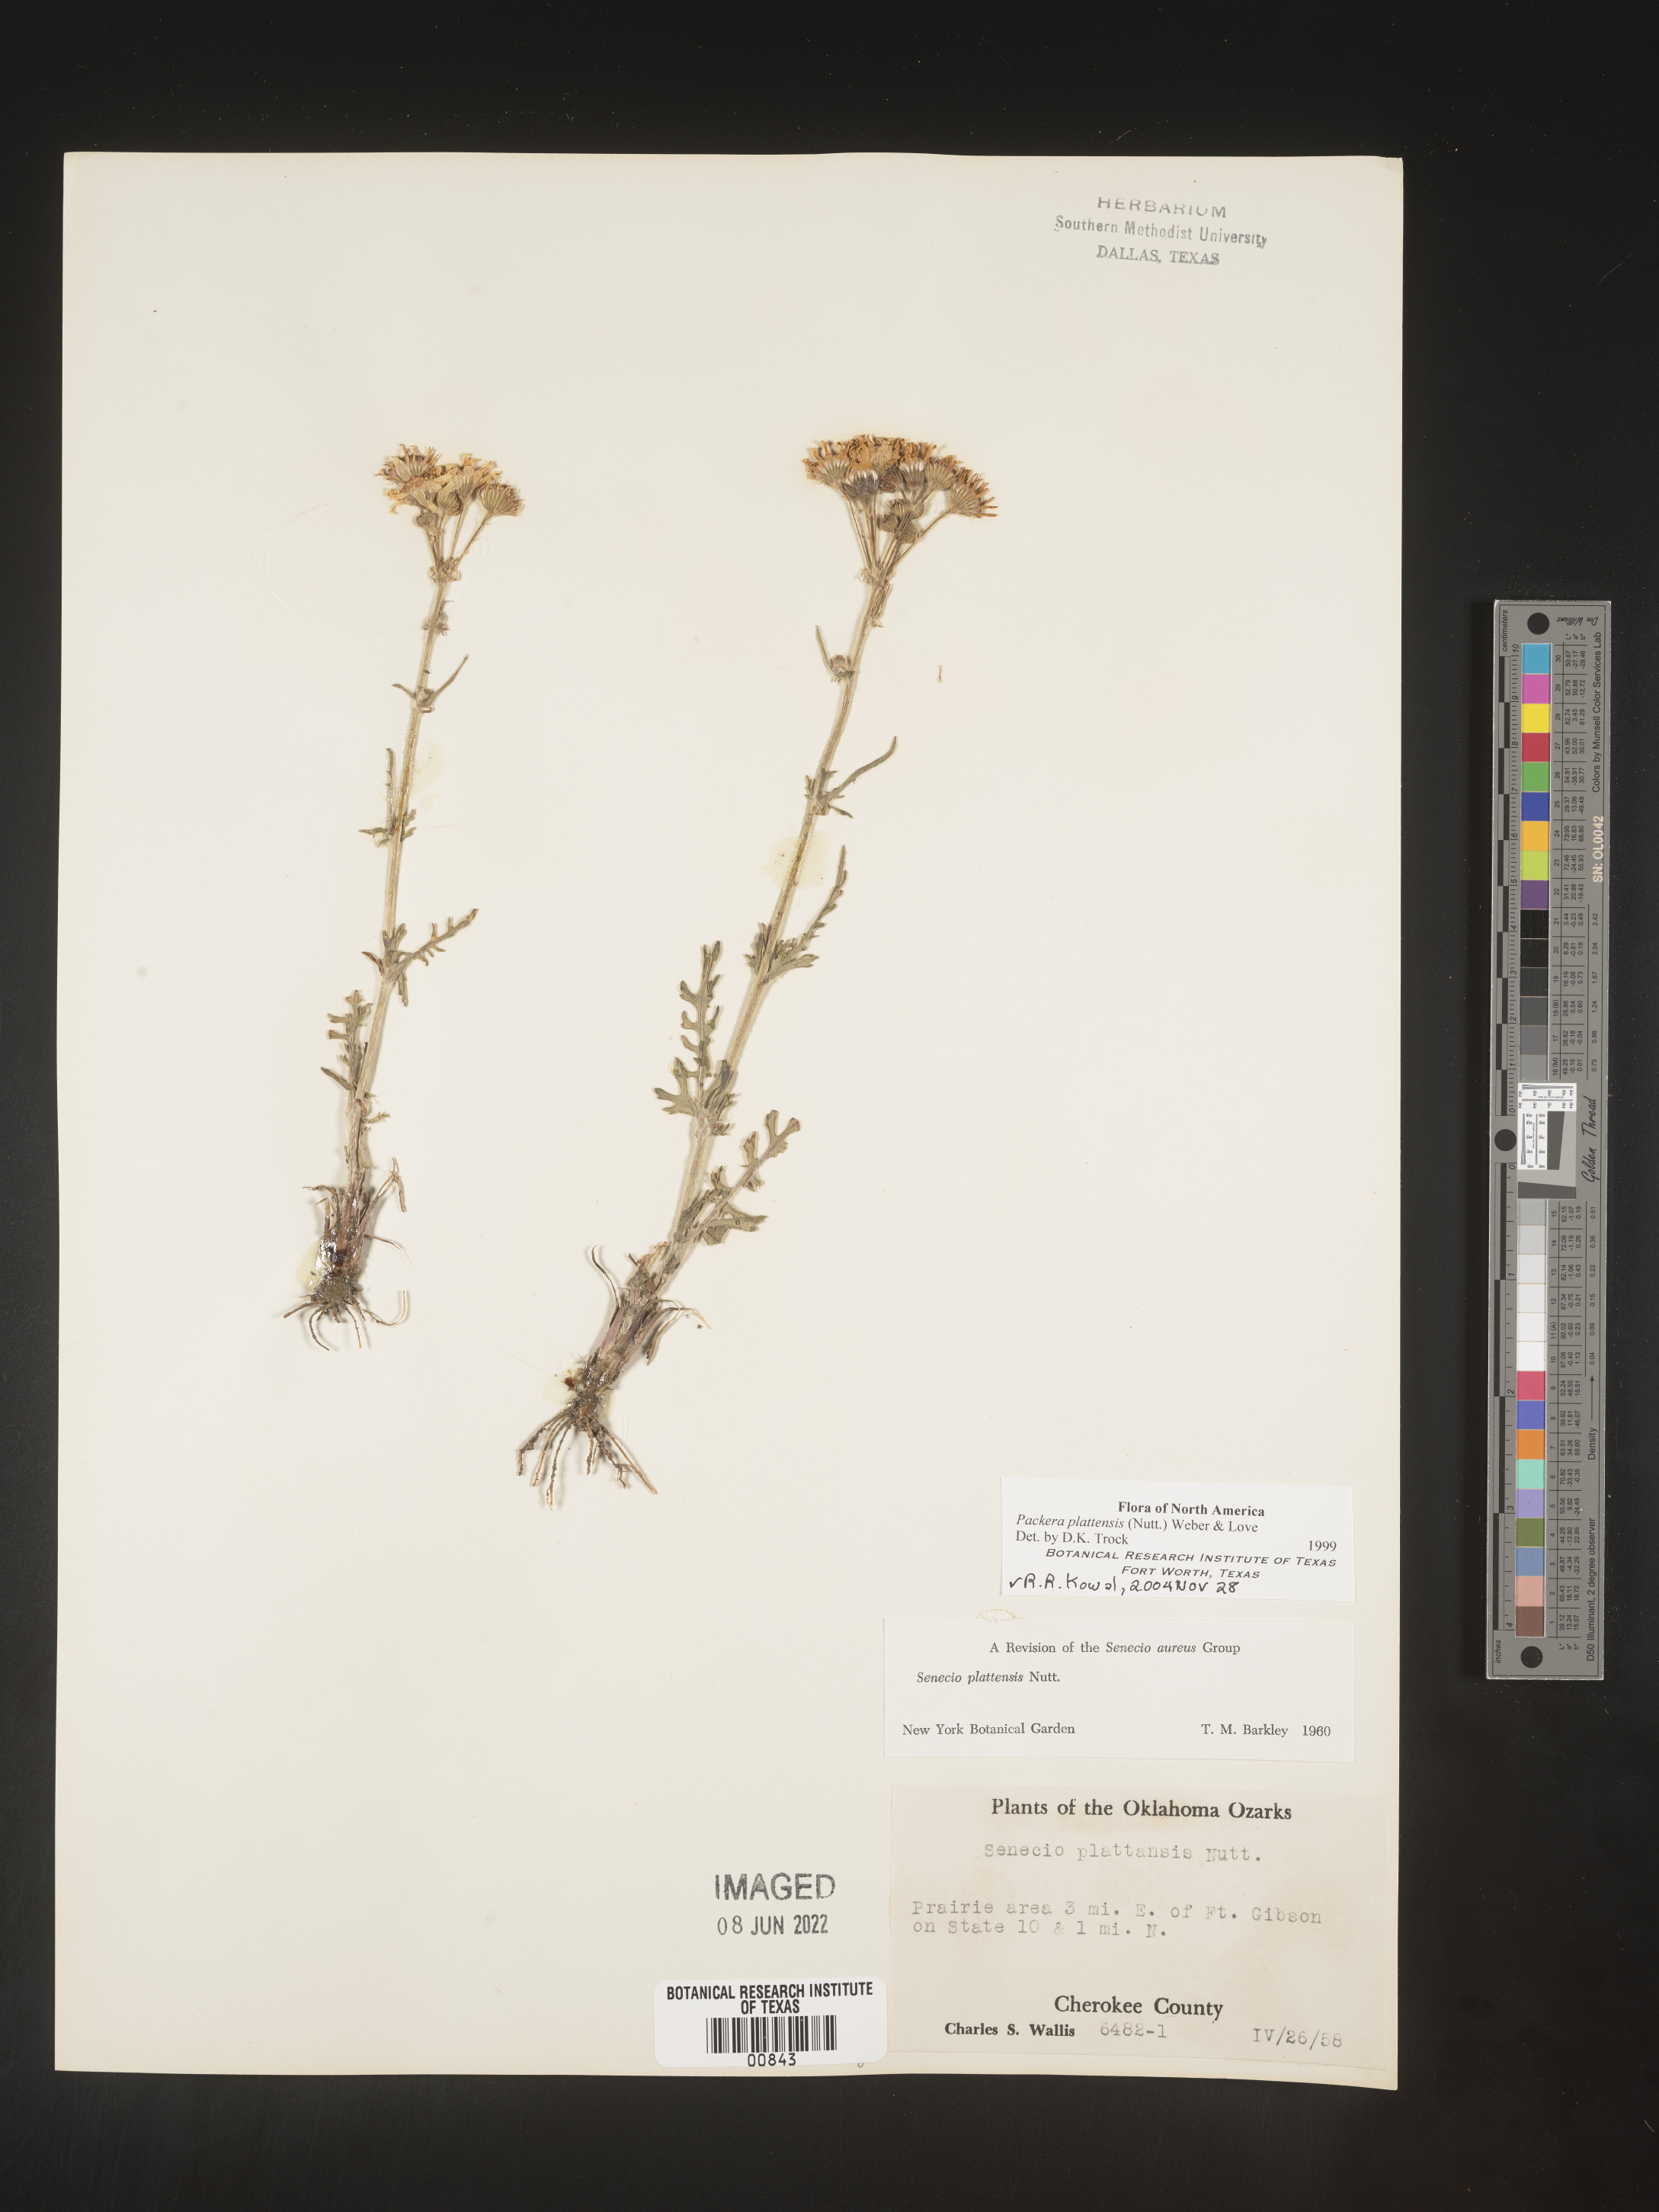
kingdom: Plantae
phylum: Tracheophyta
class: Magnoliopsida
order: Asterales
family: Asteraceae
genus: Packera
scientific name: Packera plattensis
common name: Prairie groundsel
